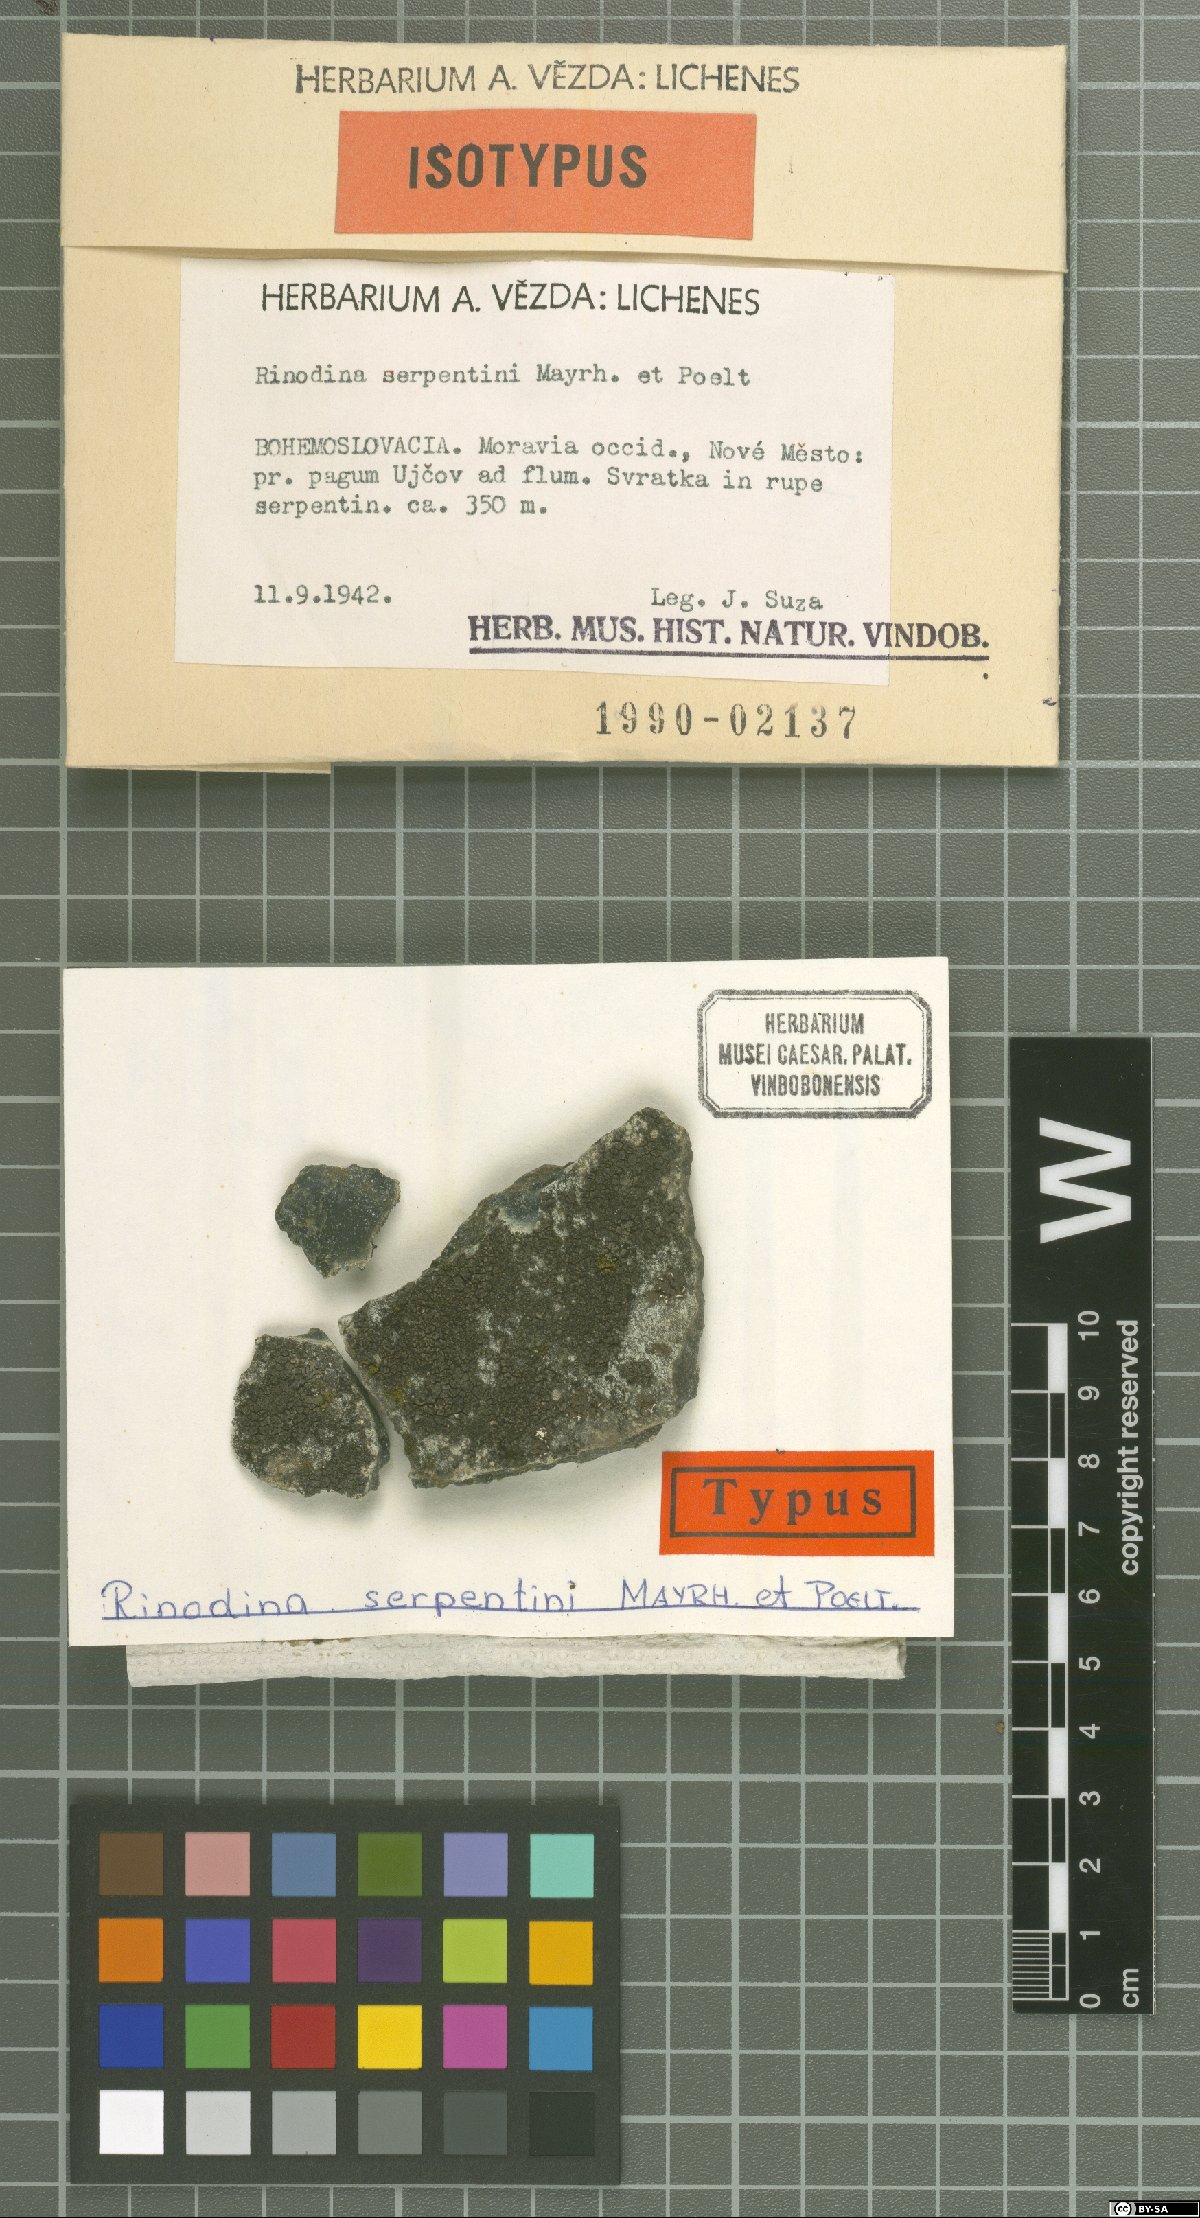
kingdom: Fungi
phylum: Ascomycota
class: Lecanoromycetes
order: Caliciales
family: Physciaceae
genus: Rinodina
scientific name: Rinodina rinodinoides
